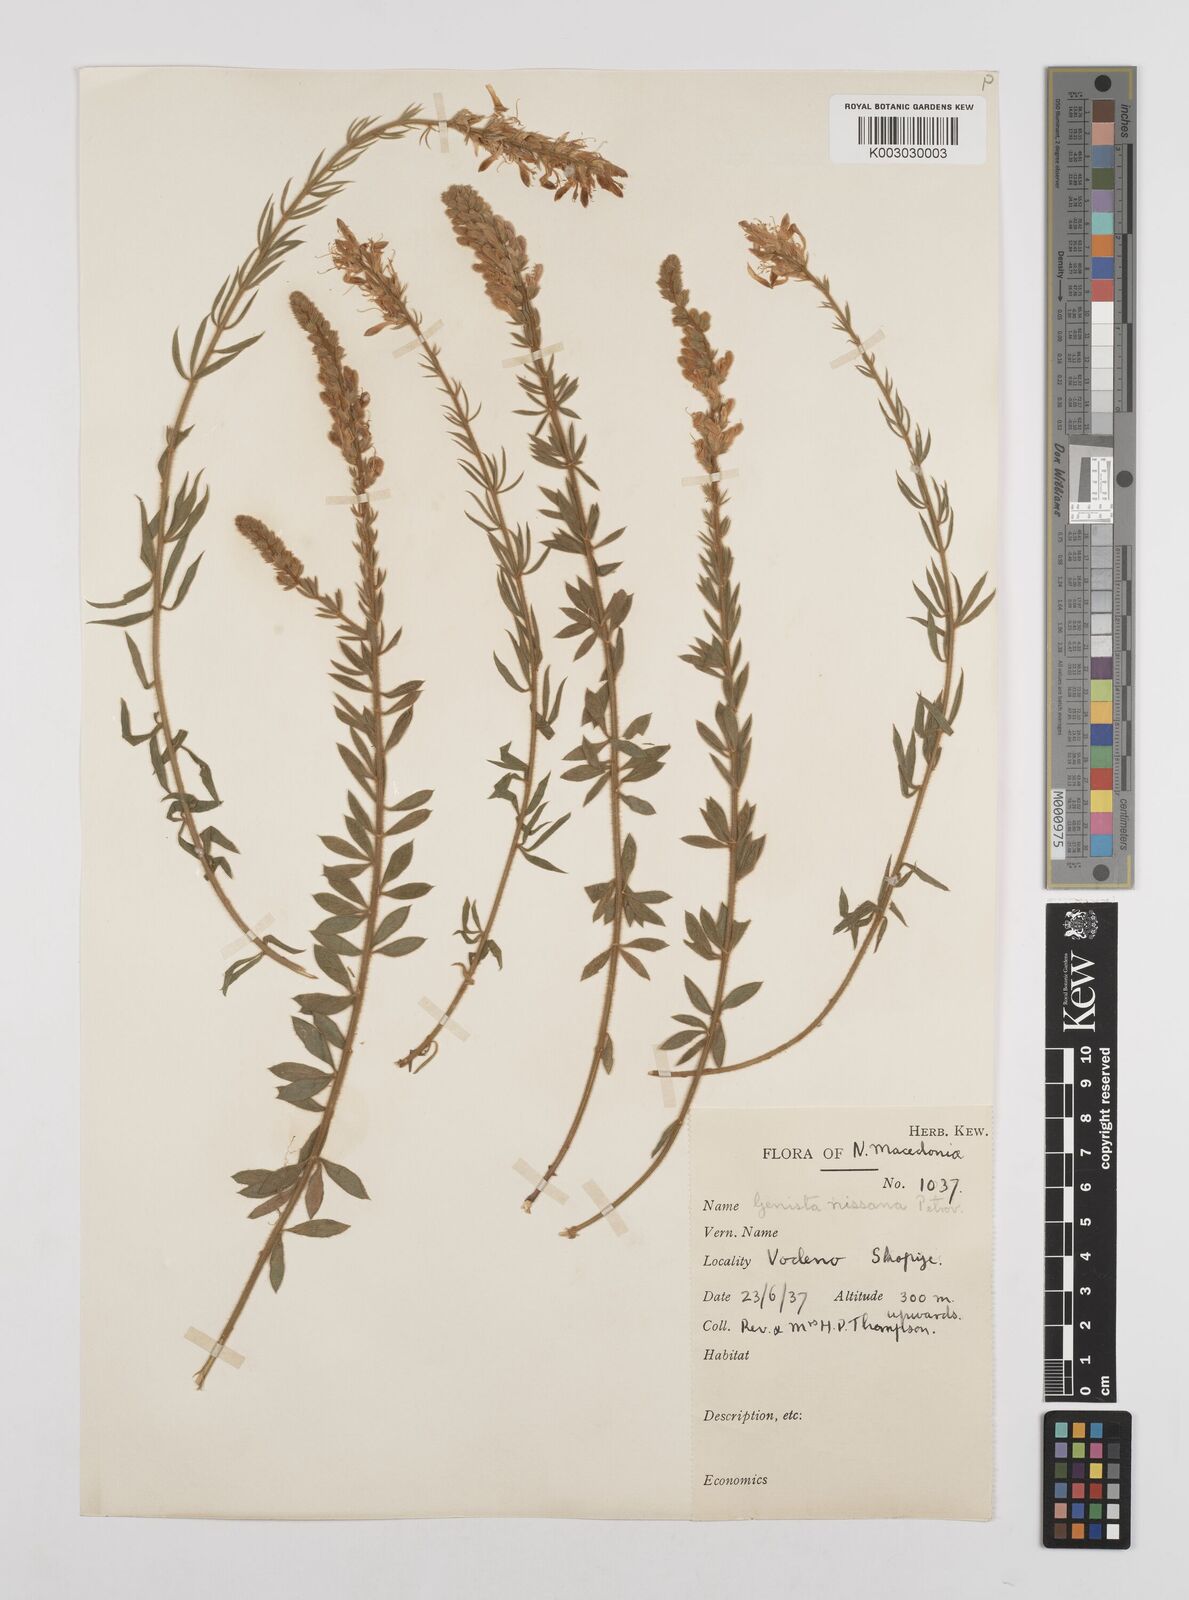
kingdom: Plantae
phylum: Tracheophyta
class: Magnoliopsida
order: Fabales
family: Fabaceae
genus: Genista
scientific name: Genista nissana
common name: Macedonian broom
